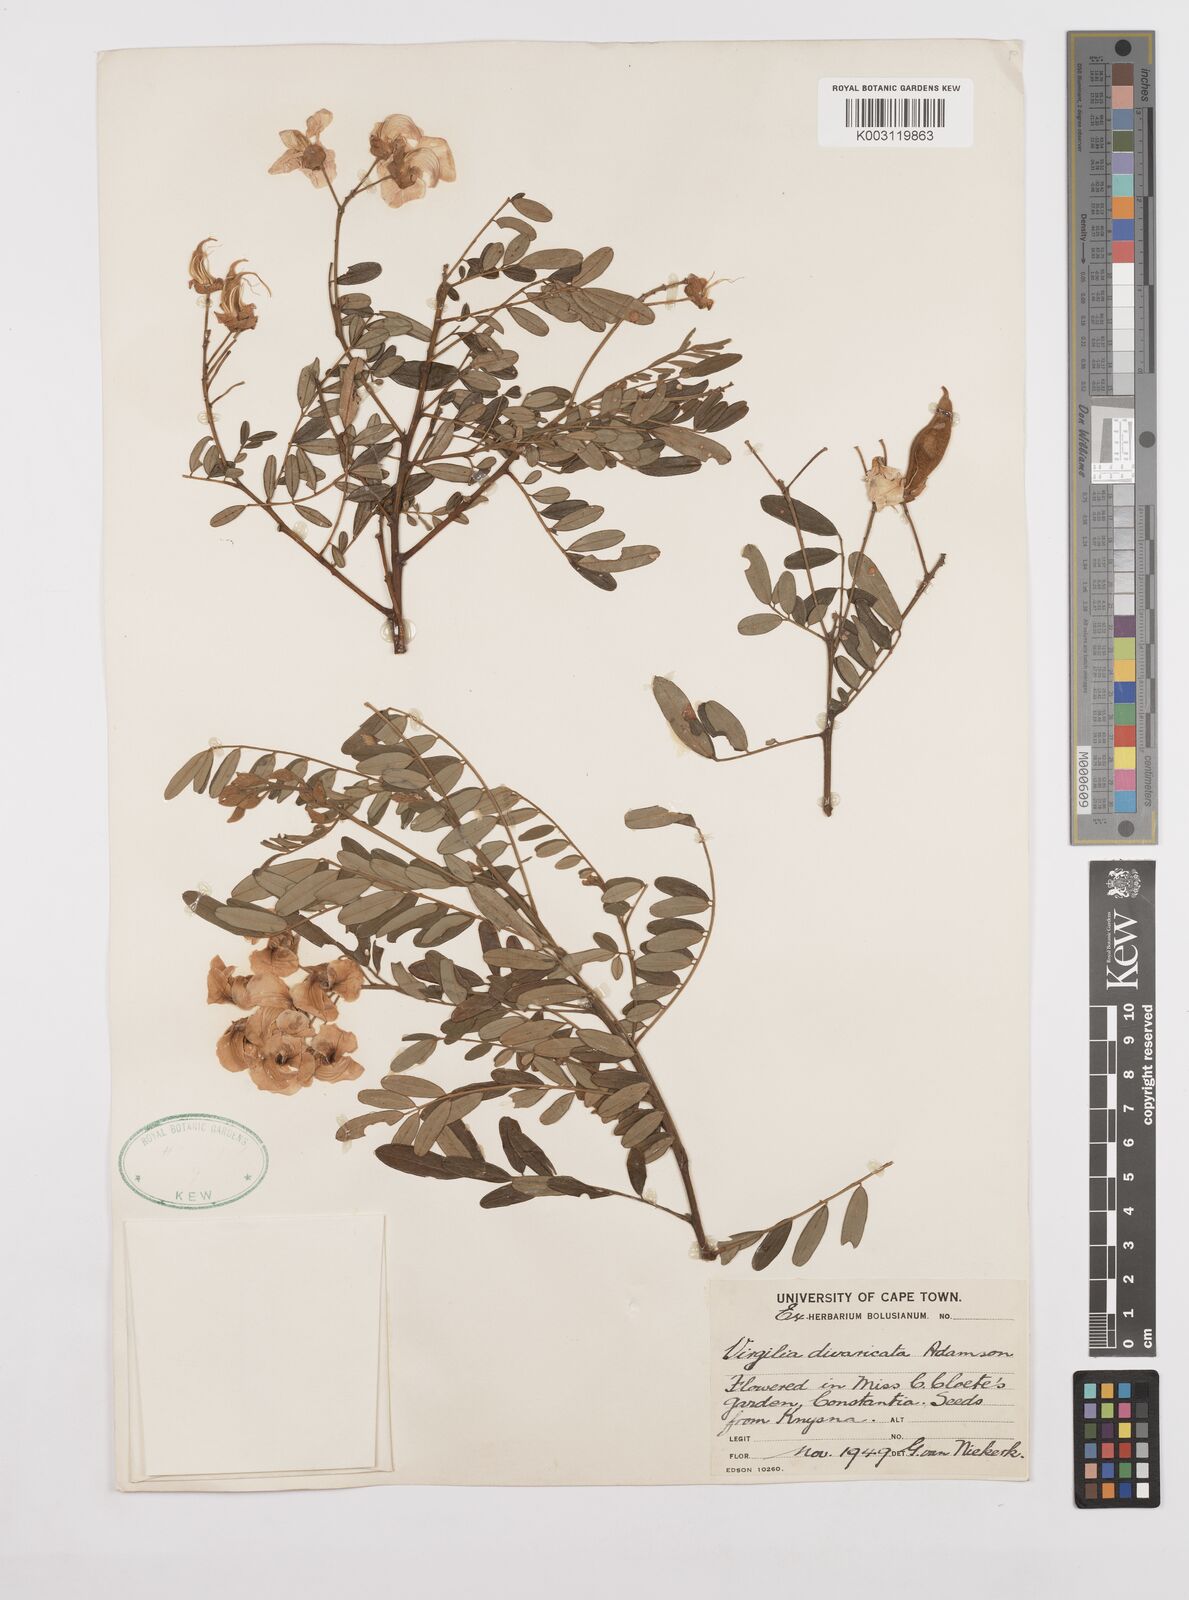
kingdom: Plantae
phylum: Tracheophyta
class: Magnoliopsida
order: Fabales
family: Fabaceae
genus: Virgilia
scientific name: Virgilia divaricata
